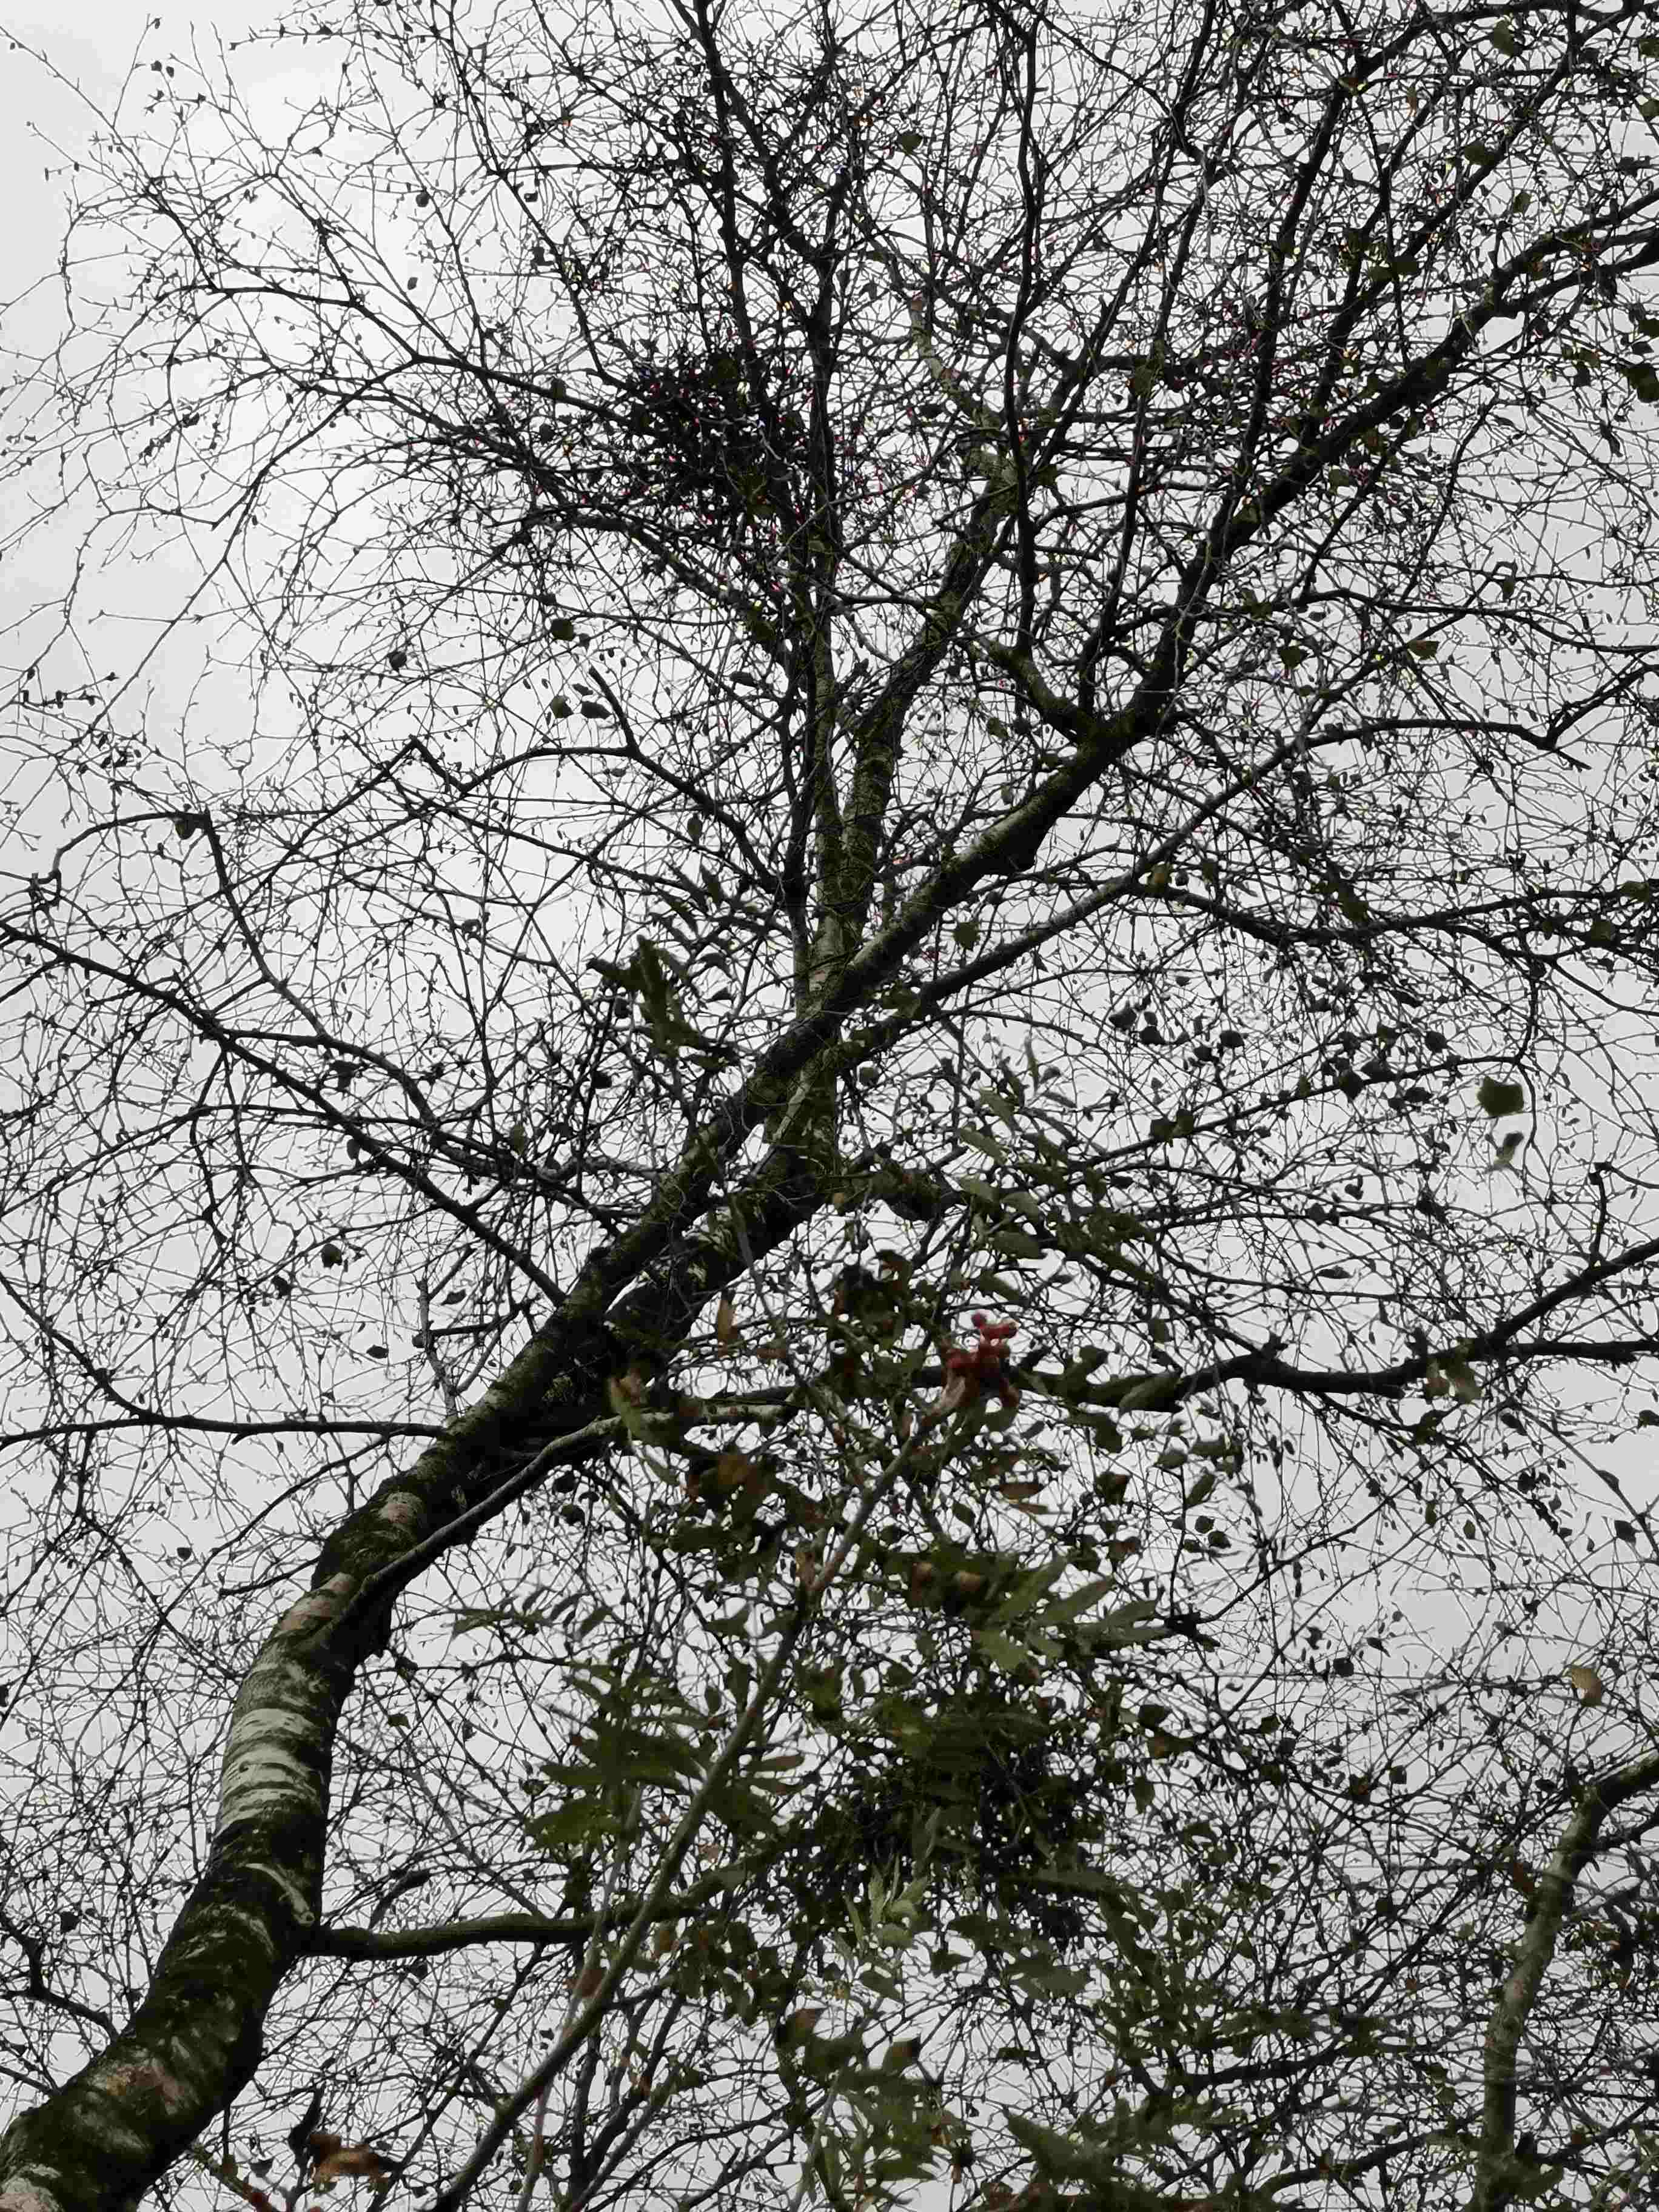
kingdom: Fungi
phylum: Ascomycota
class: Taphrinomycetes
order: Taphrinales
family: Taphrinaceae
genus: Taphrina
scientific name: Taphrina betulina
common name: hekse-sækdug
